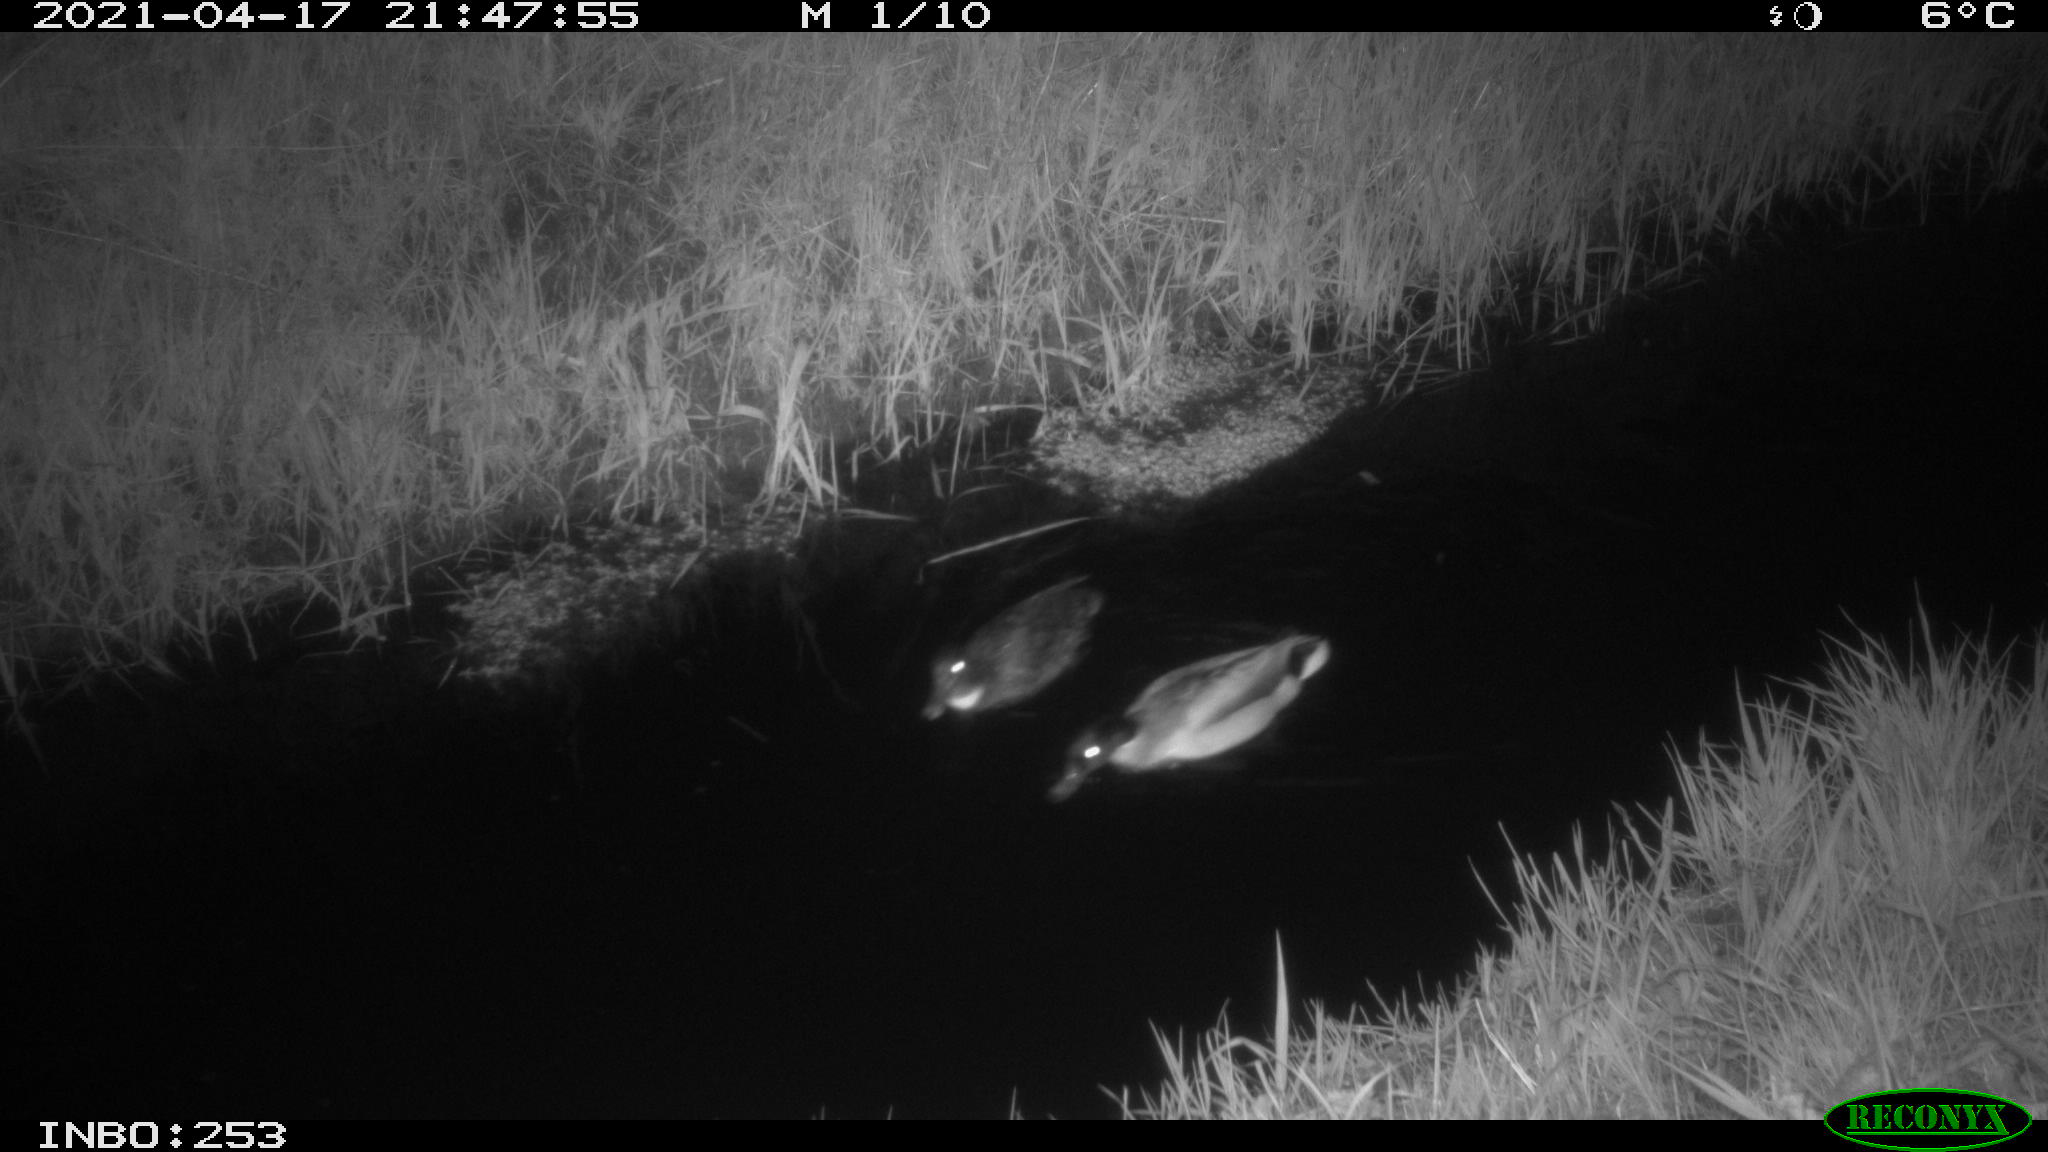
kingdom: Animalia
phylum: Chordata
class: Aves
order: Anseriformes
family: Anatidae
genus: Anas
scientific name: Anas platyrhynchos
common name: Mallard
